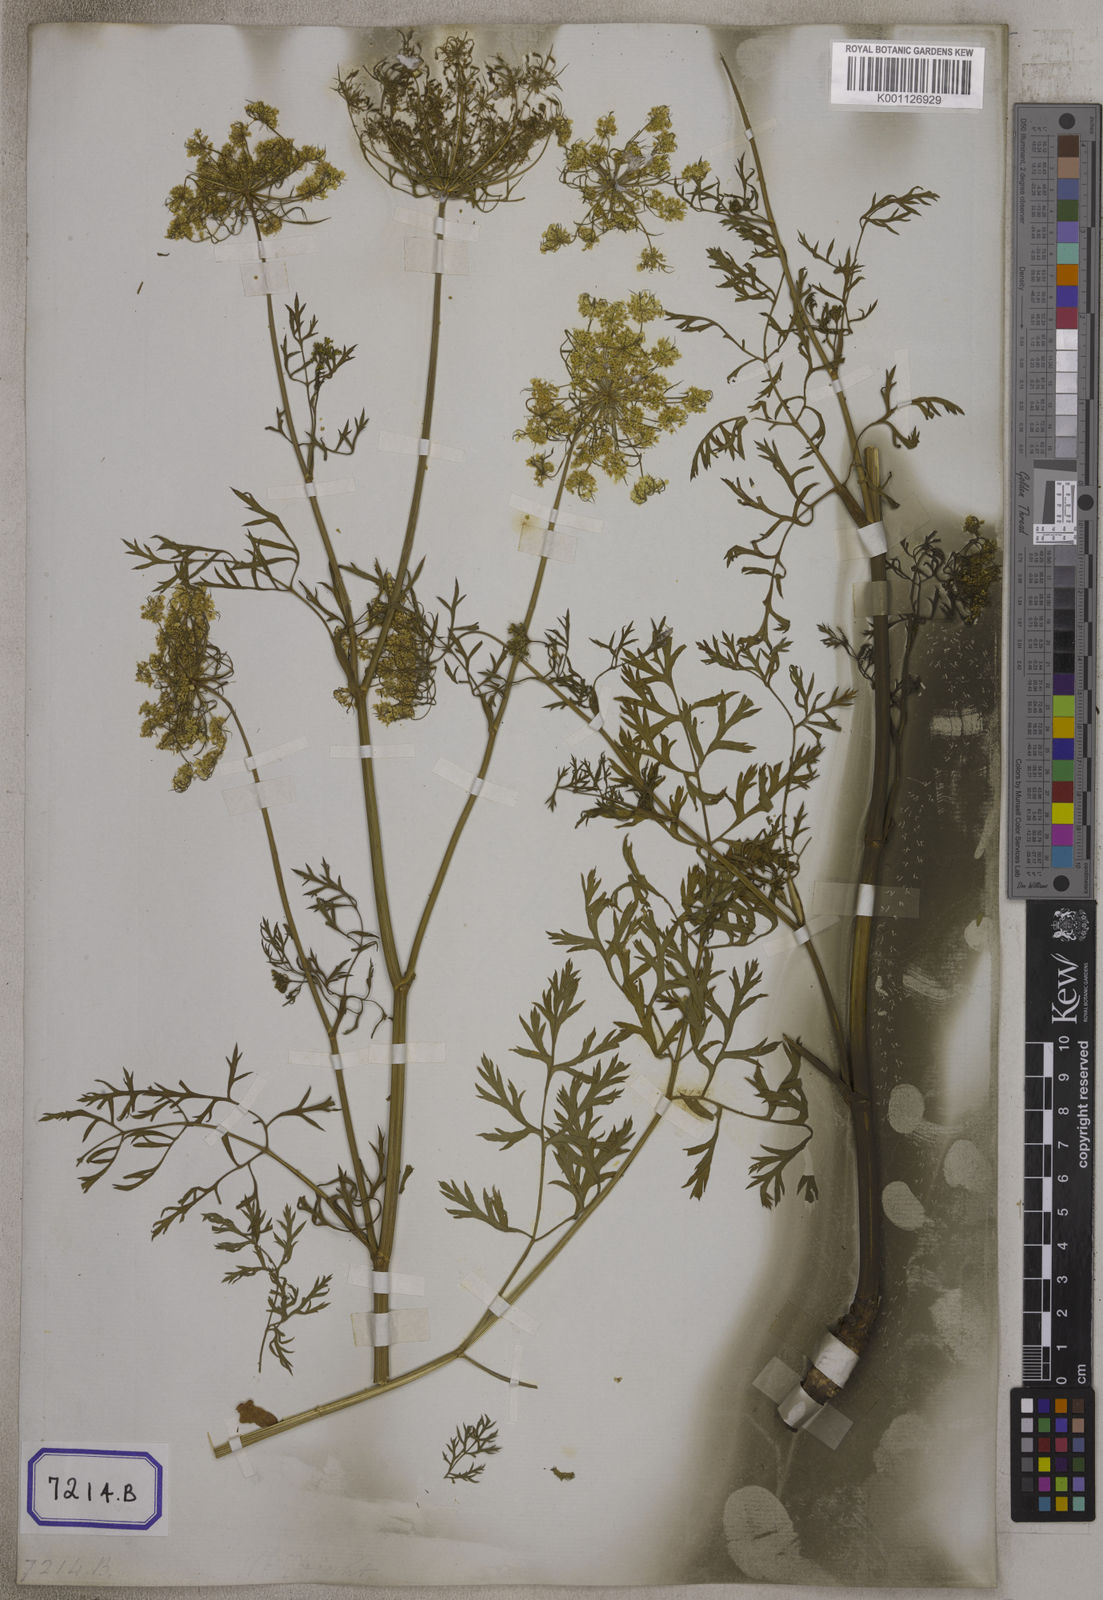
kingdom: Plantae
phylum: Tracheophyta
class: Magnoliopsida
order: Apiales
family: Apiaceae
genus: Daucus
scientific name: Daucus carota
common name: Wild carrot
